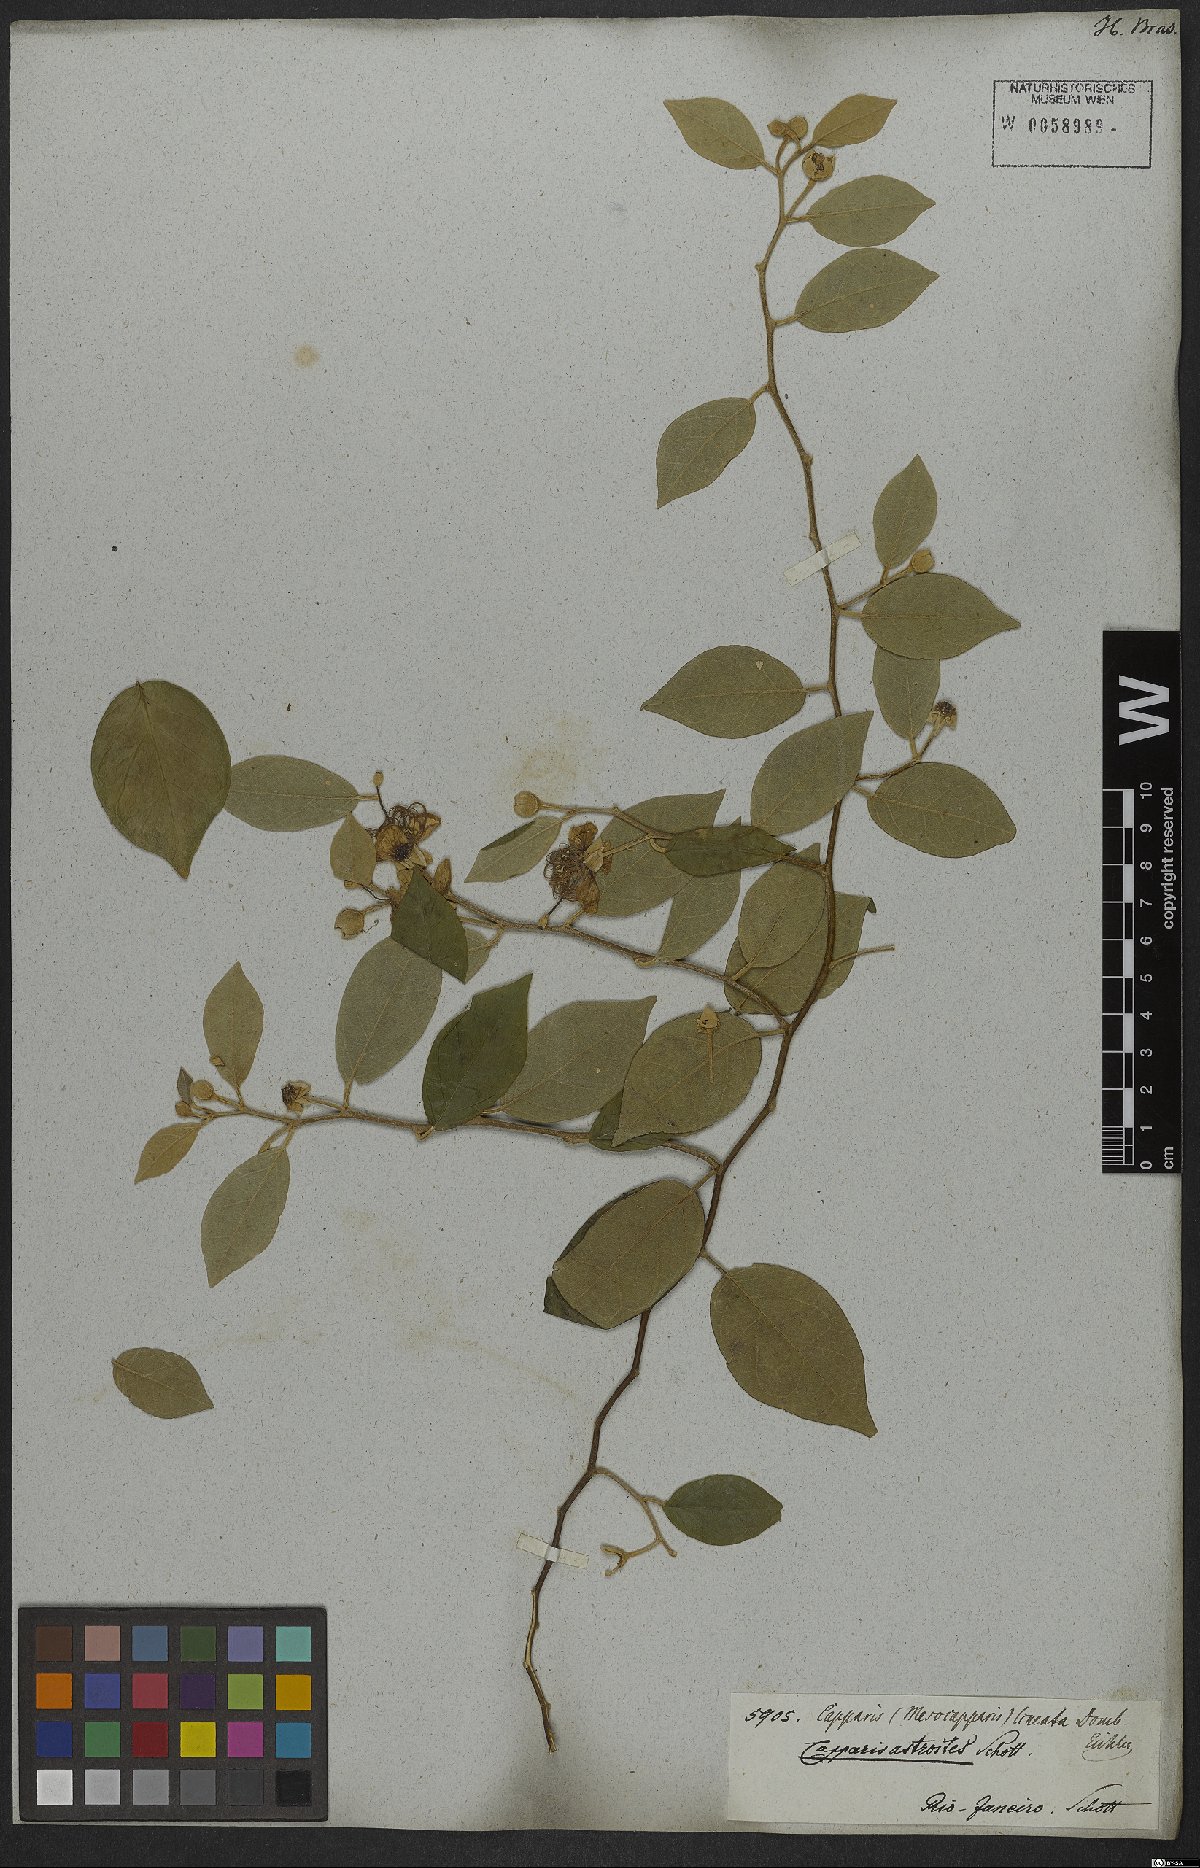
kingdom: Plantae
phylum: Tracheophyta
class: Magnoliopsida
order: Brassicales
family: Capparaceae
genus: Mesocapparis
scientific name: Mesocapparis lineata
